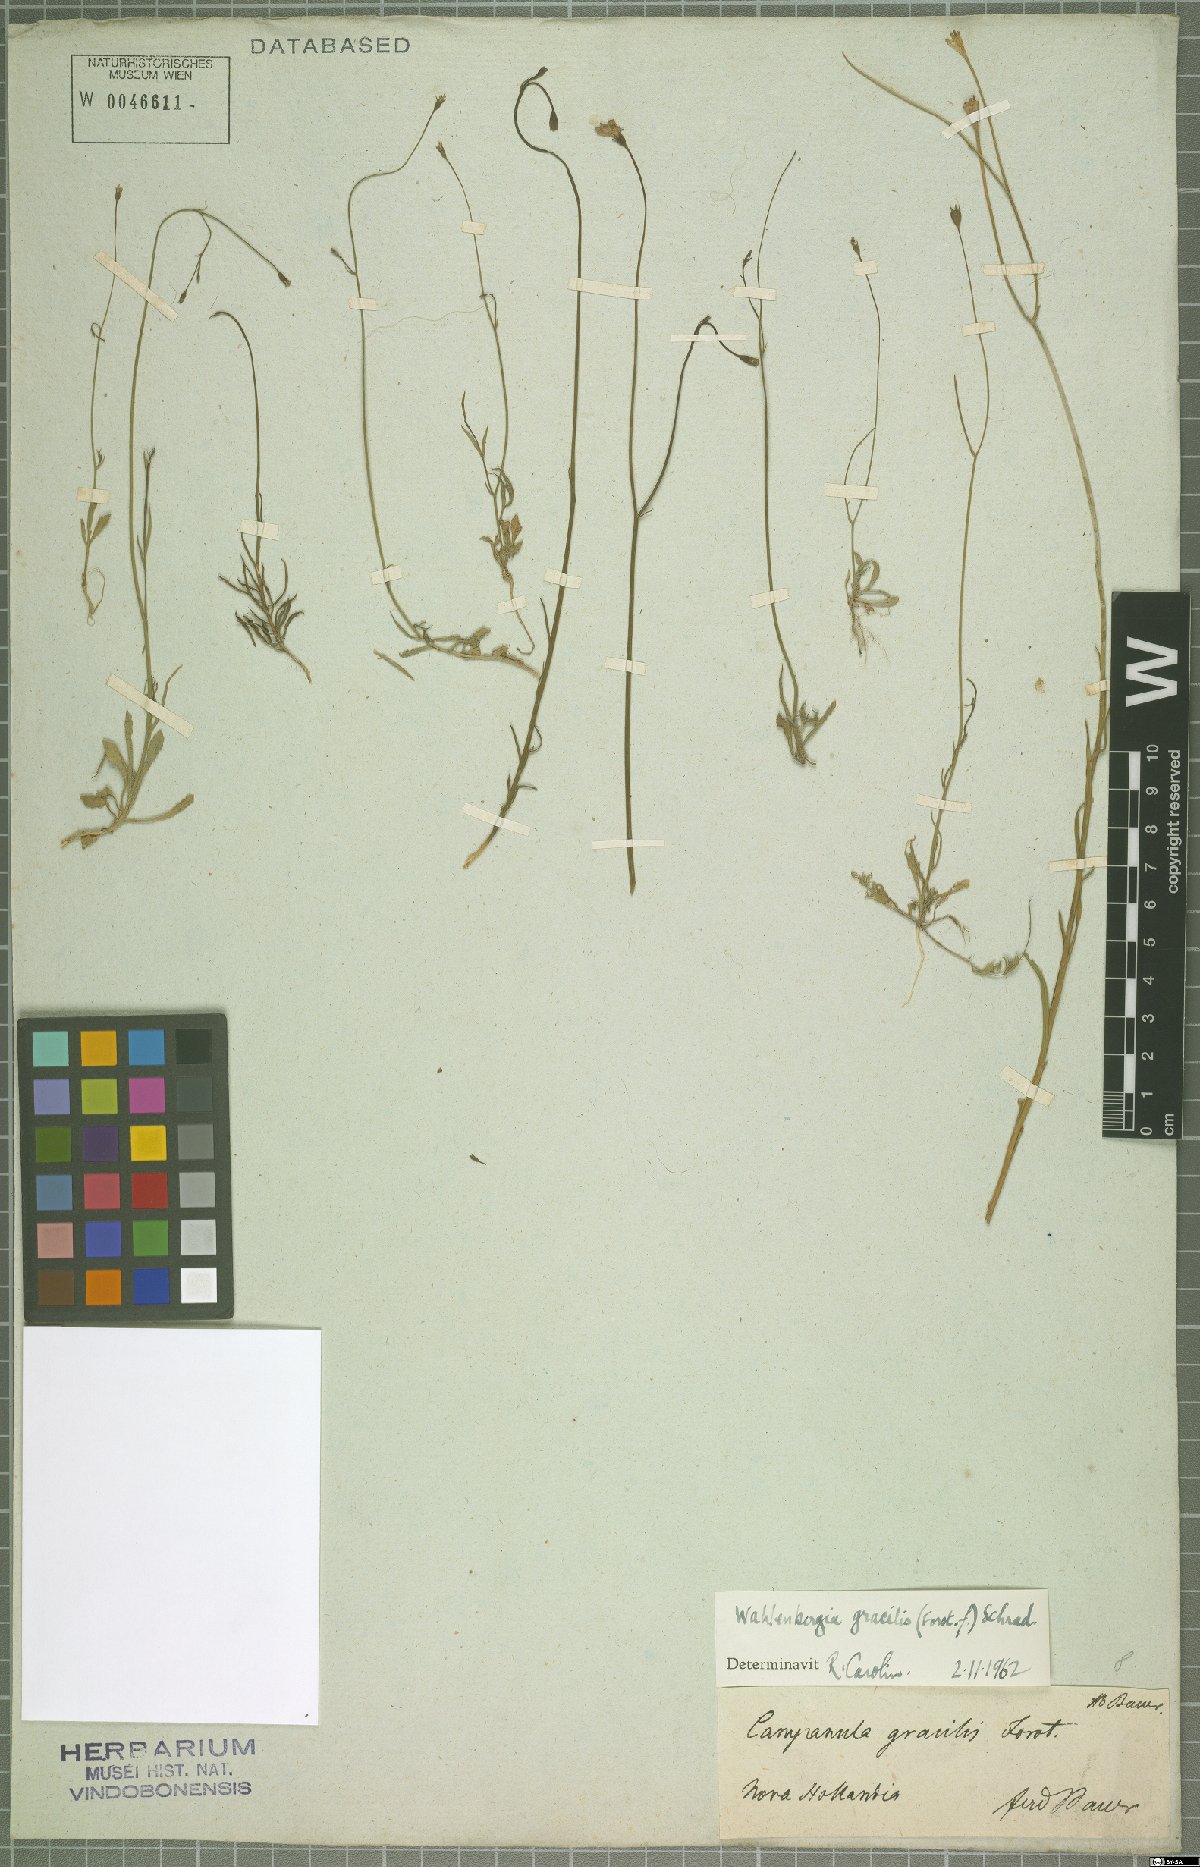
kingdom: Plantae
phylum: Tracheophyta
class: Magnoliopsida
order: Asterales
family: Campanulaceae
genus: Wahlenbergia
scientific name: Wahlenbergia gracilis
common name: Harebell
